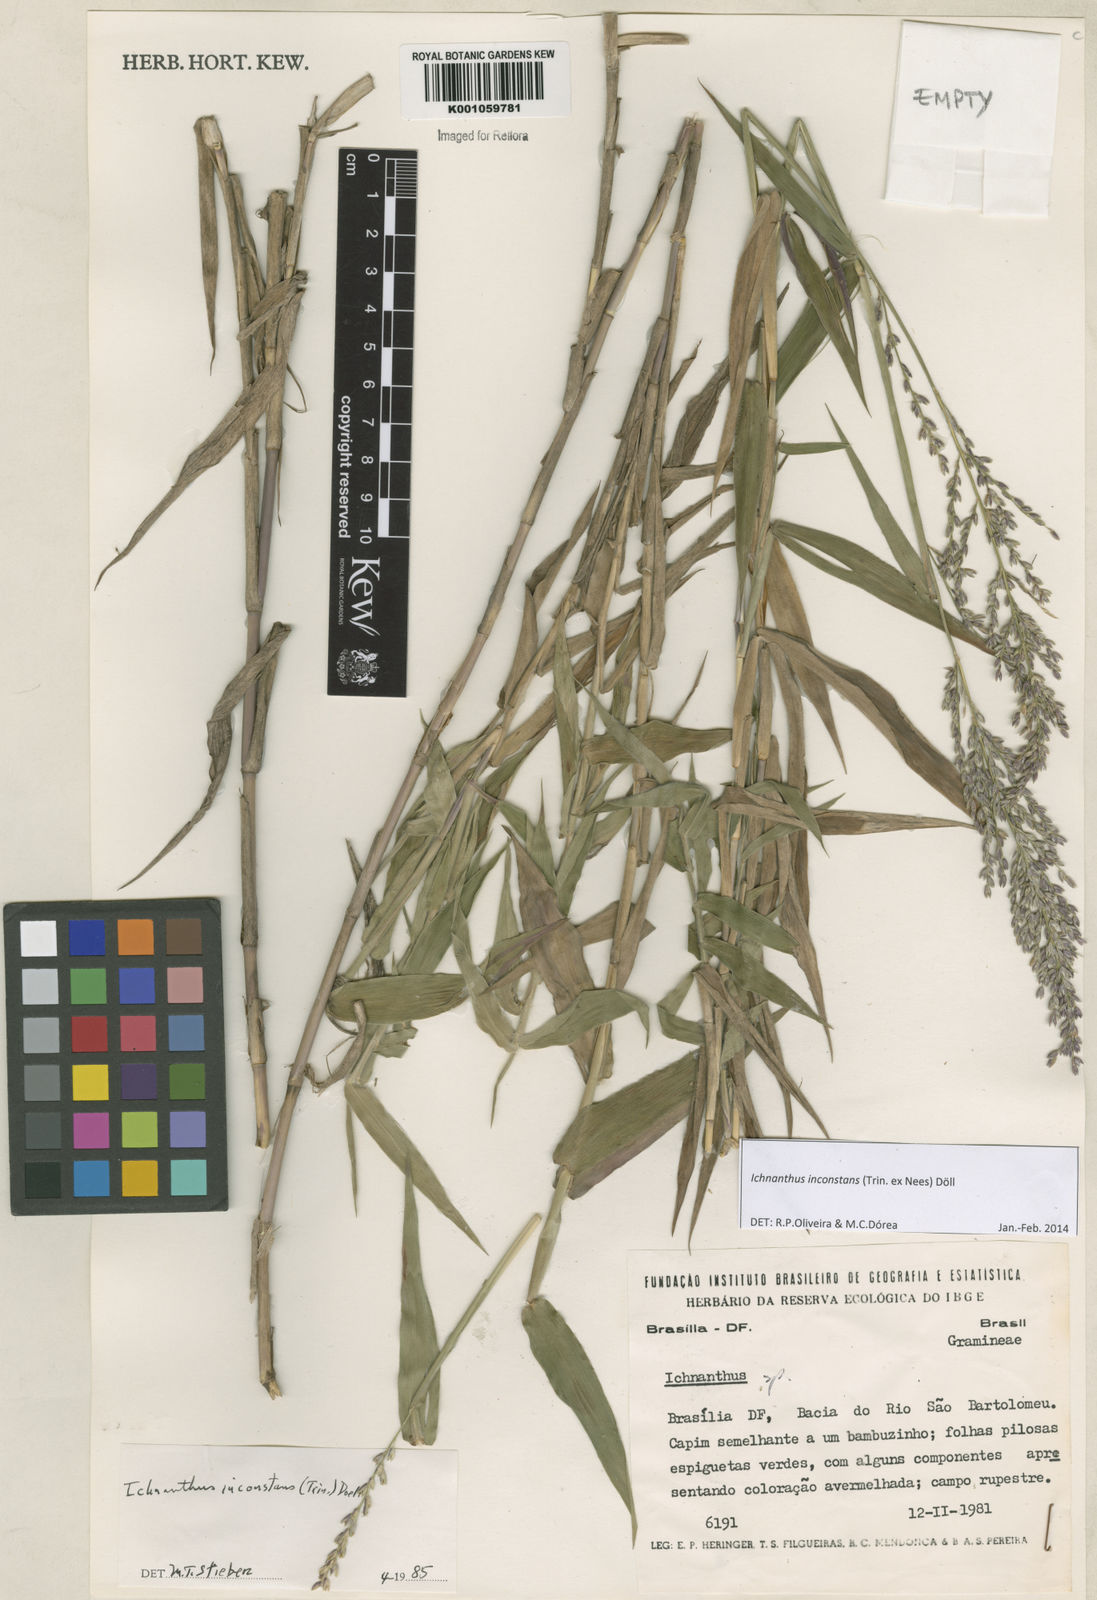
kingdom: Plantae
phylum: Tracheophyta
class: Liliopsida
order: Poales
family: Poaceae
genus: Ichnanthus
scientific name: Ichnanthus
